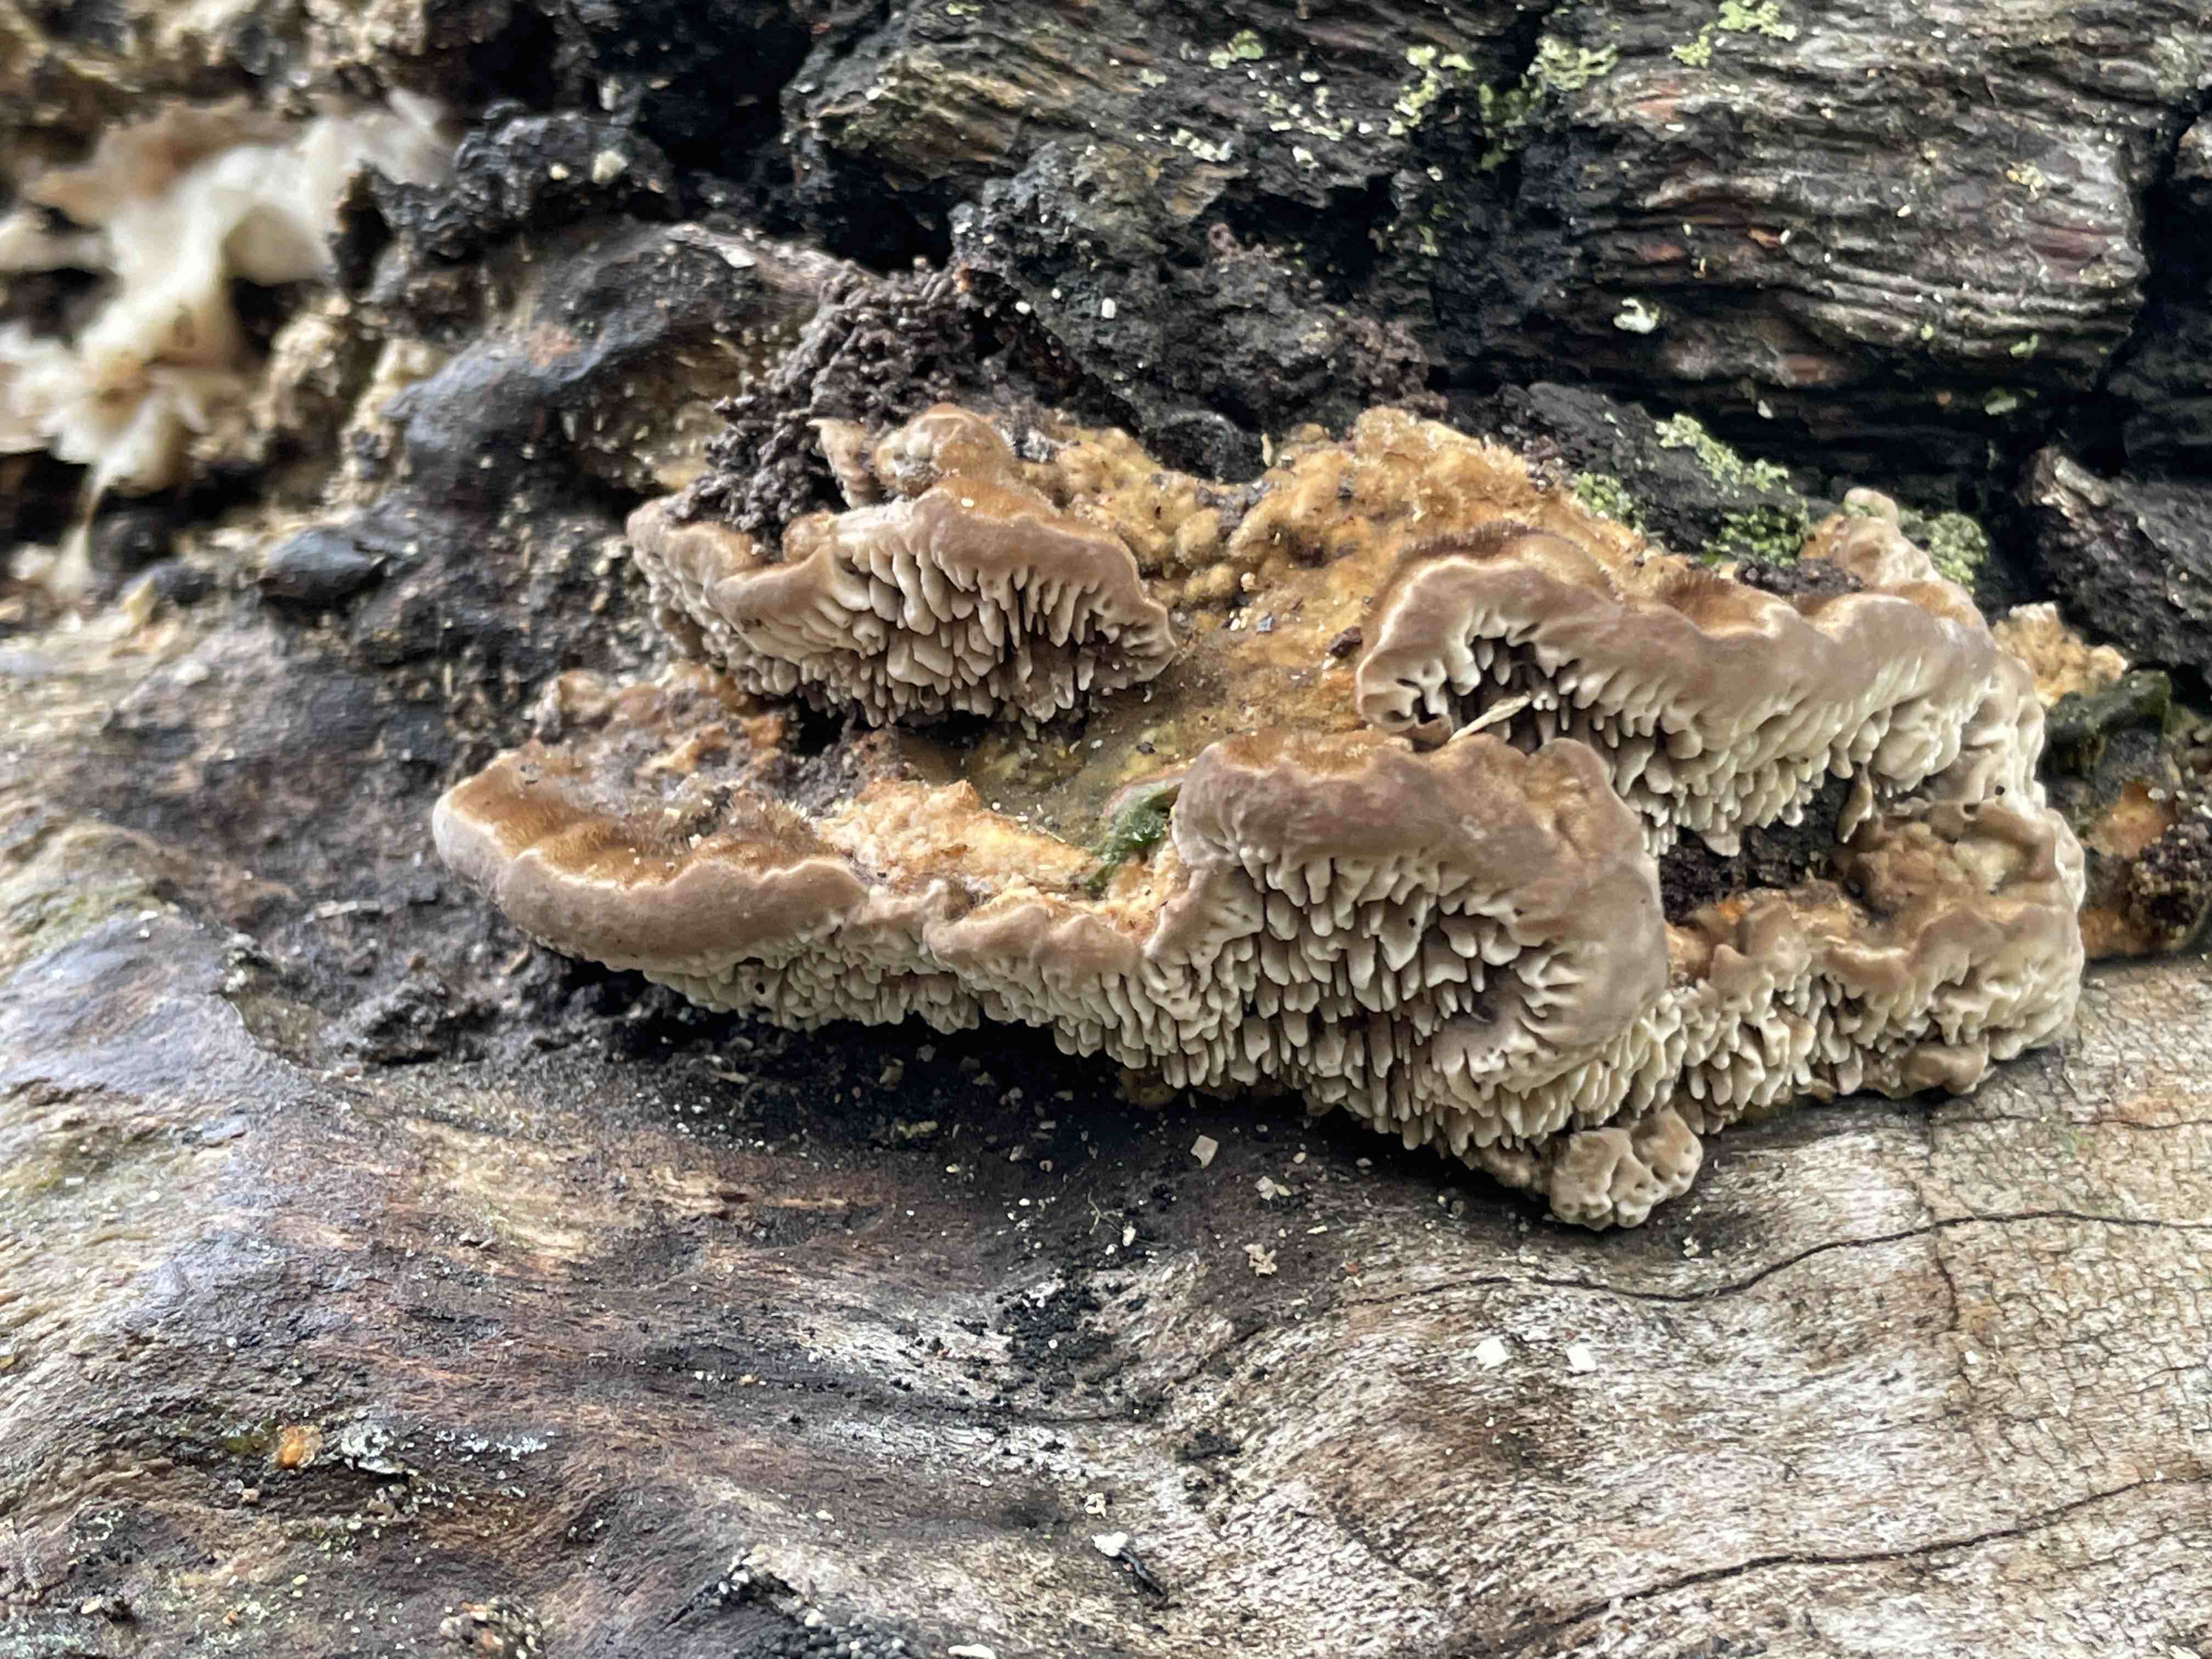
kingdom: Fungi
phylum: Basidiomycota
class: Agaricomycetes
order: Polyporales
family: Polyporaceae
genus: Lenzites
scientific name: Lenzites betulinus
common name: birke-læderporesvamp
